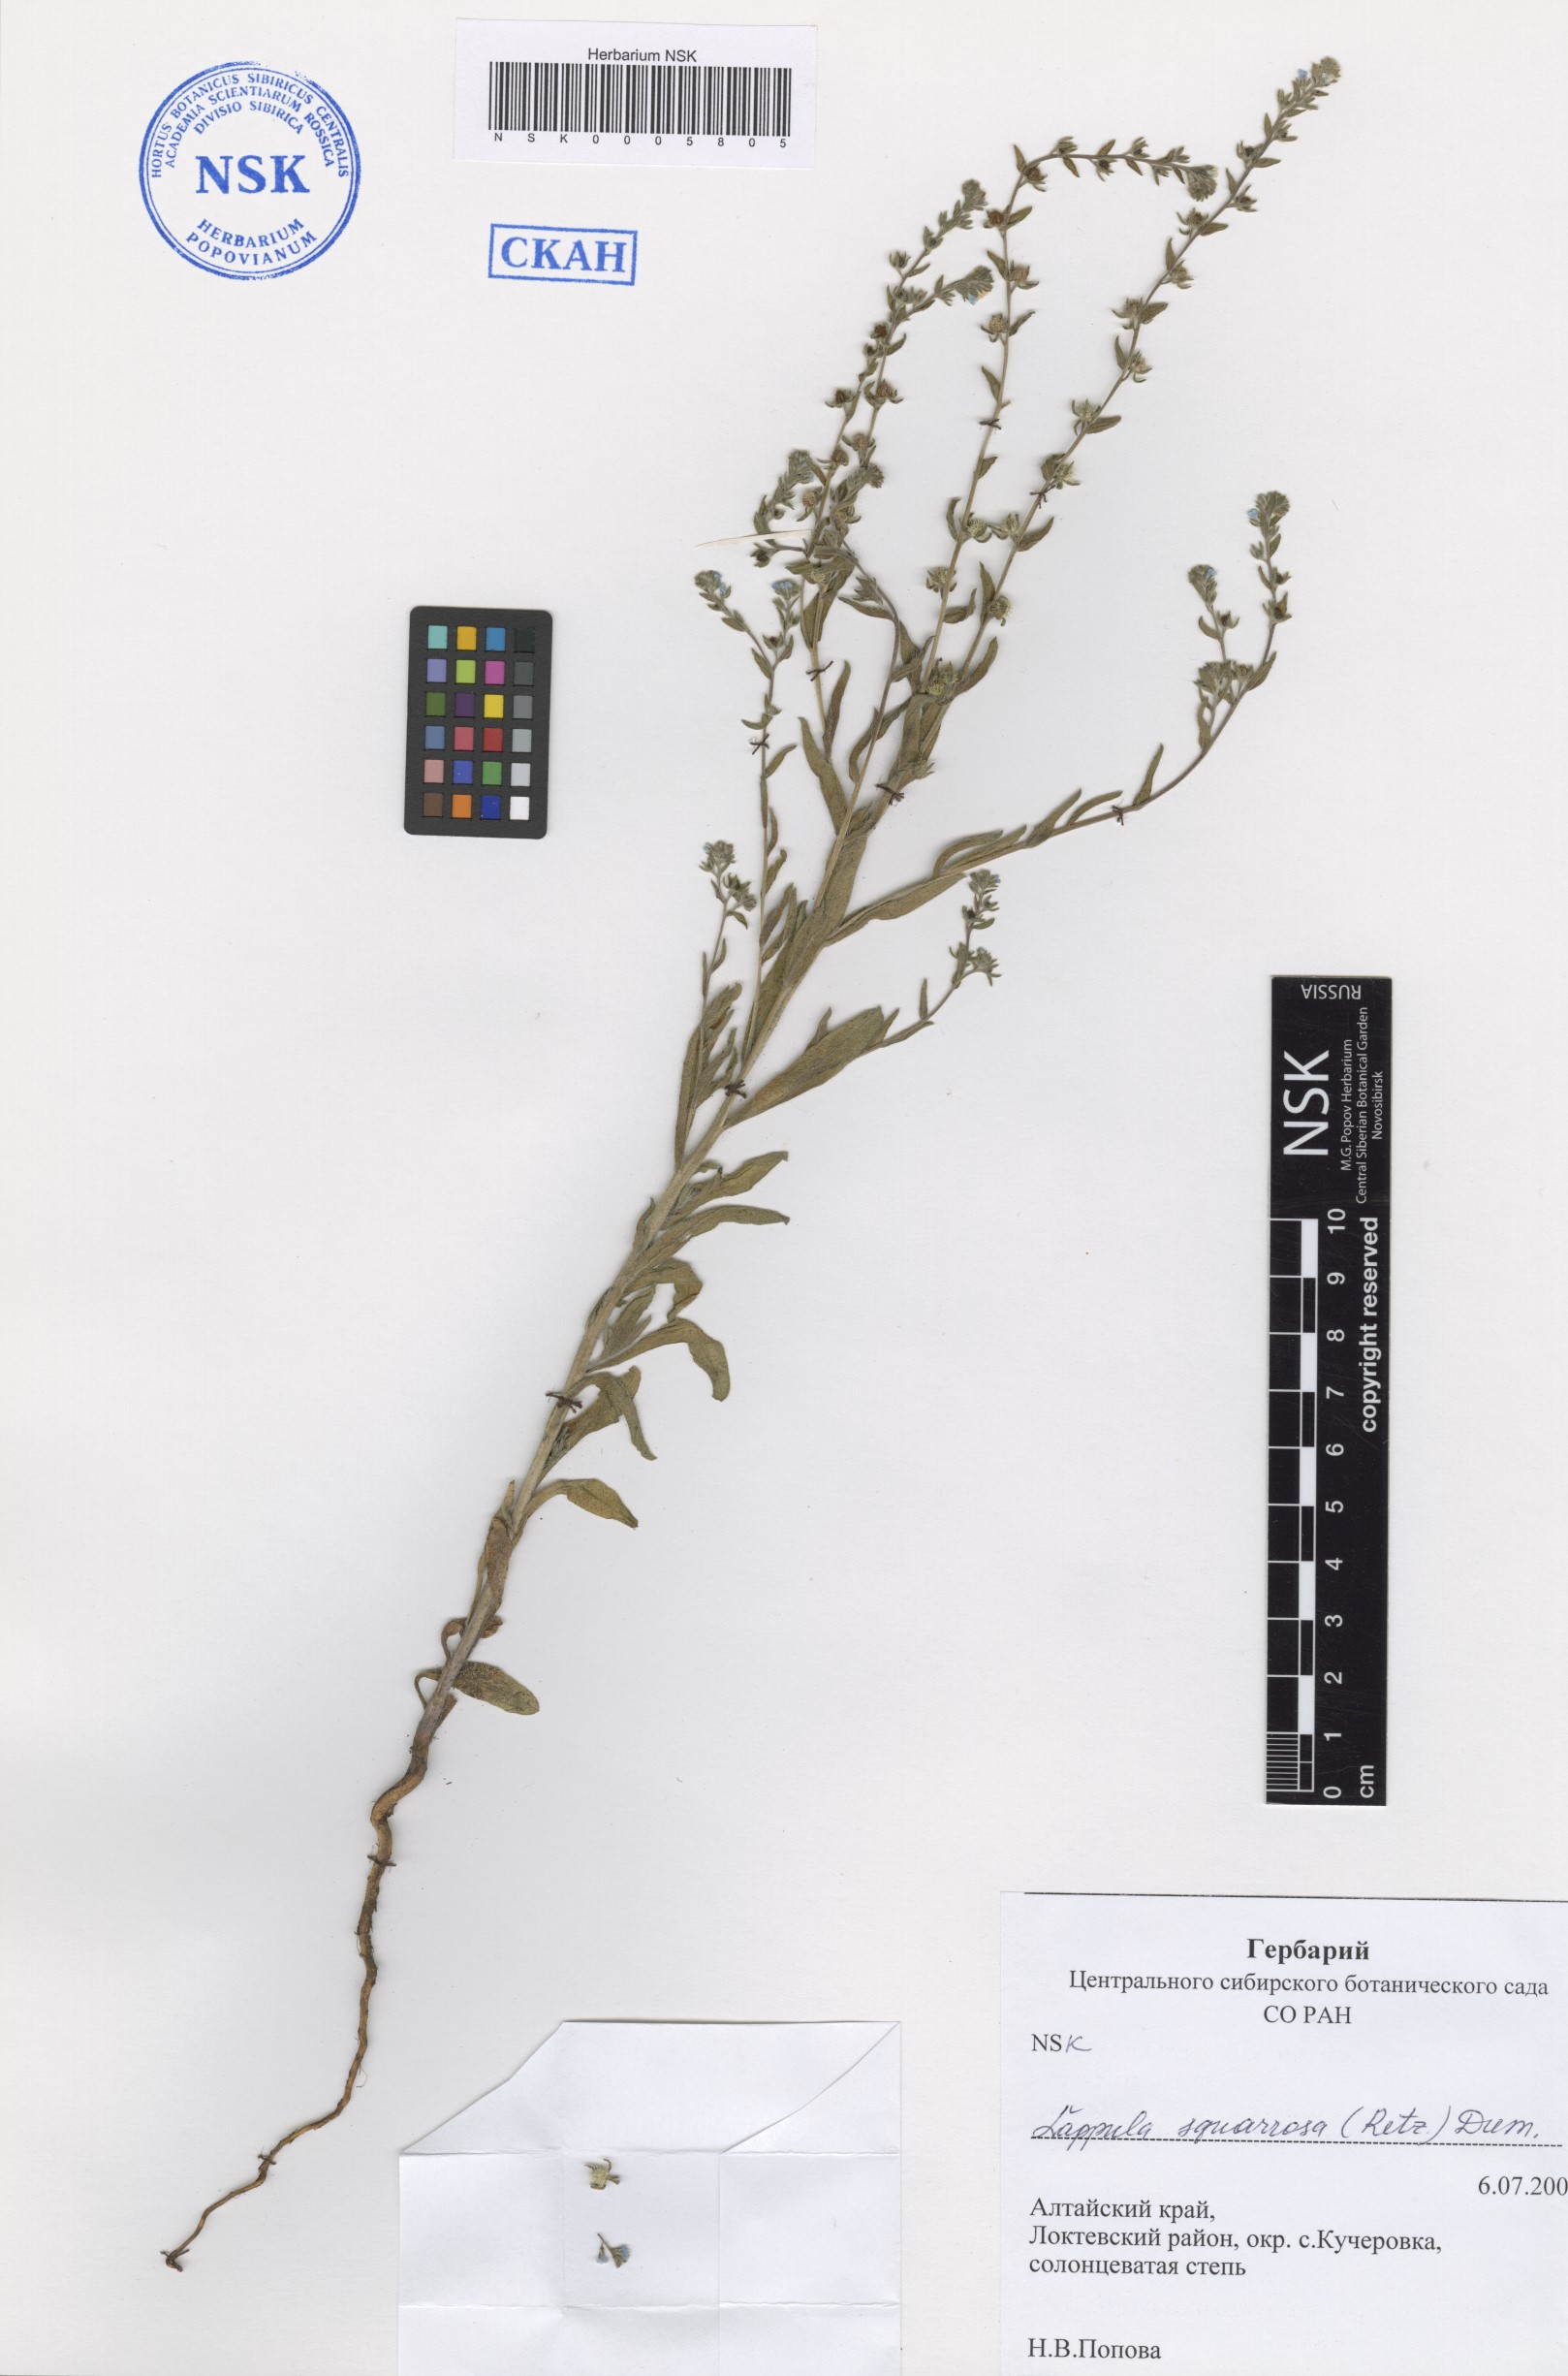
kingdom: Plantae
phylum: Tracheophyta
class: Magnoliopsida
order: Boraginales
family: Boraginaceae
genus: Lappula
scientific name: Lappula squarrosa
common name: European stickseed
